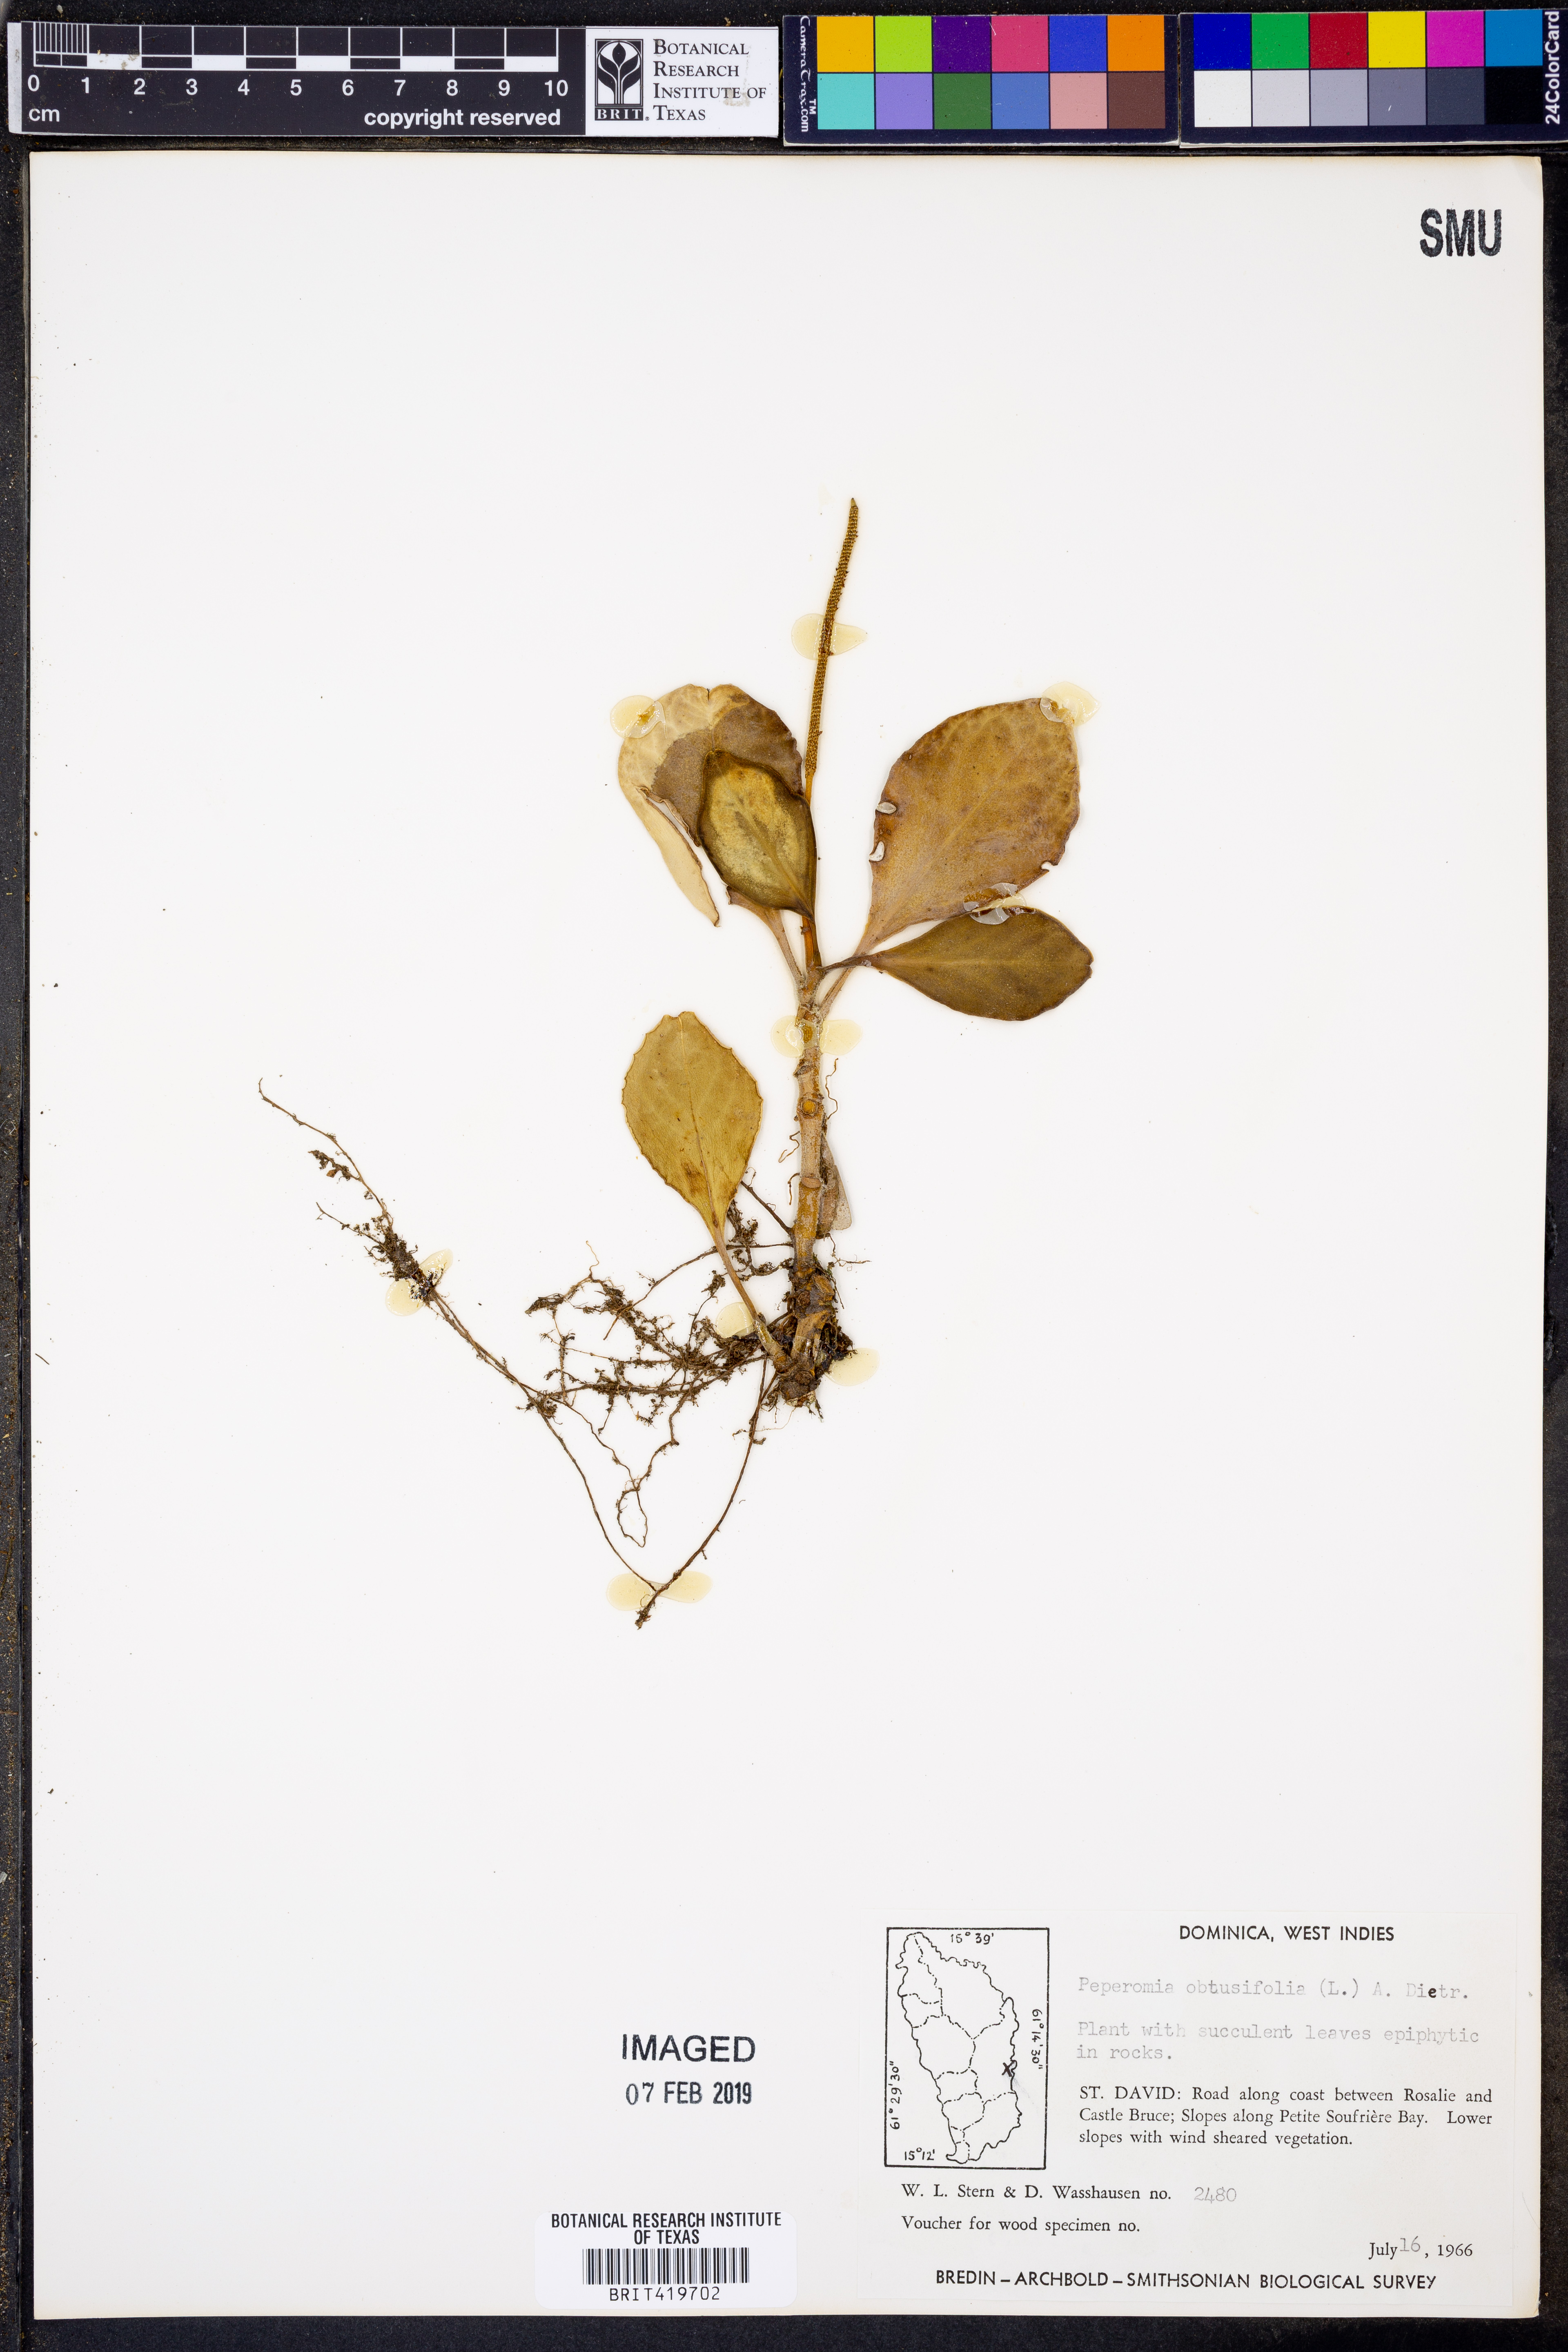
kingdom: Plantae
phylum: Tracheophyta
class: Magnoliopsida
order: Piperales
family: Piperaceae
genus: Peperomia
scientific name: Peperomia obtusifolia
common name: Baby rubberplant
